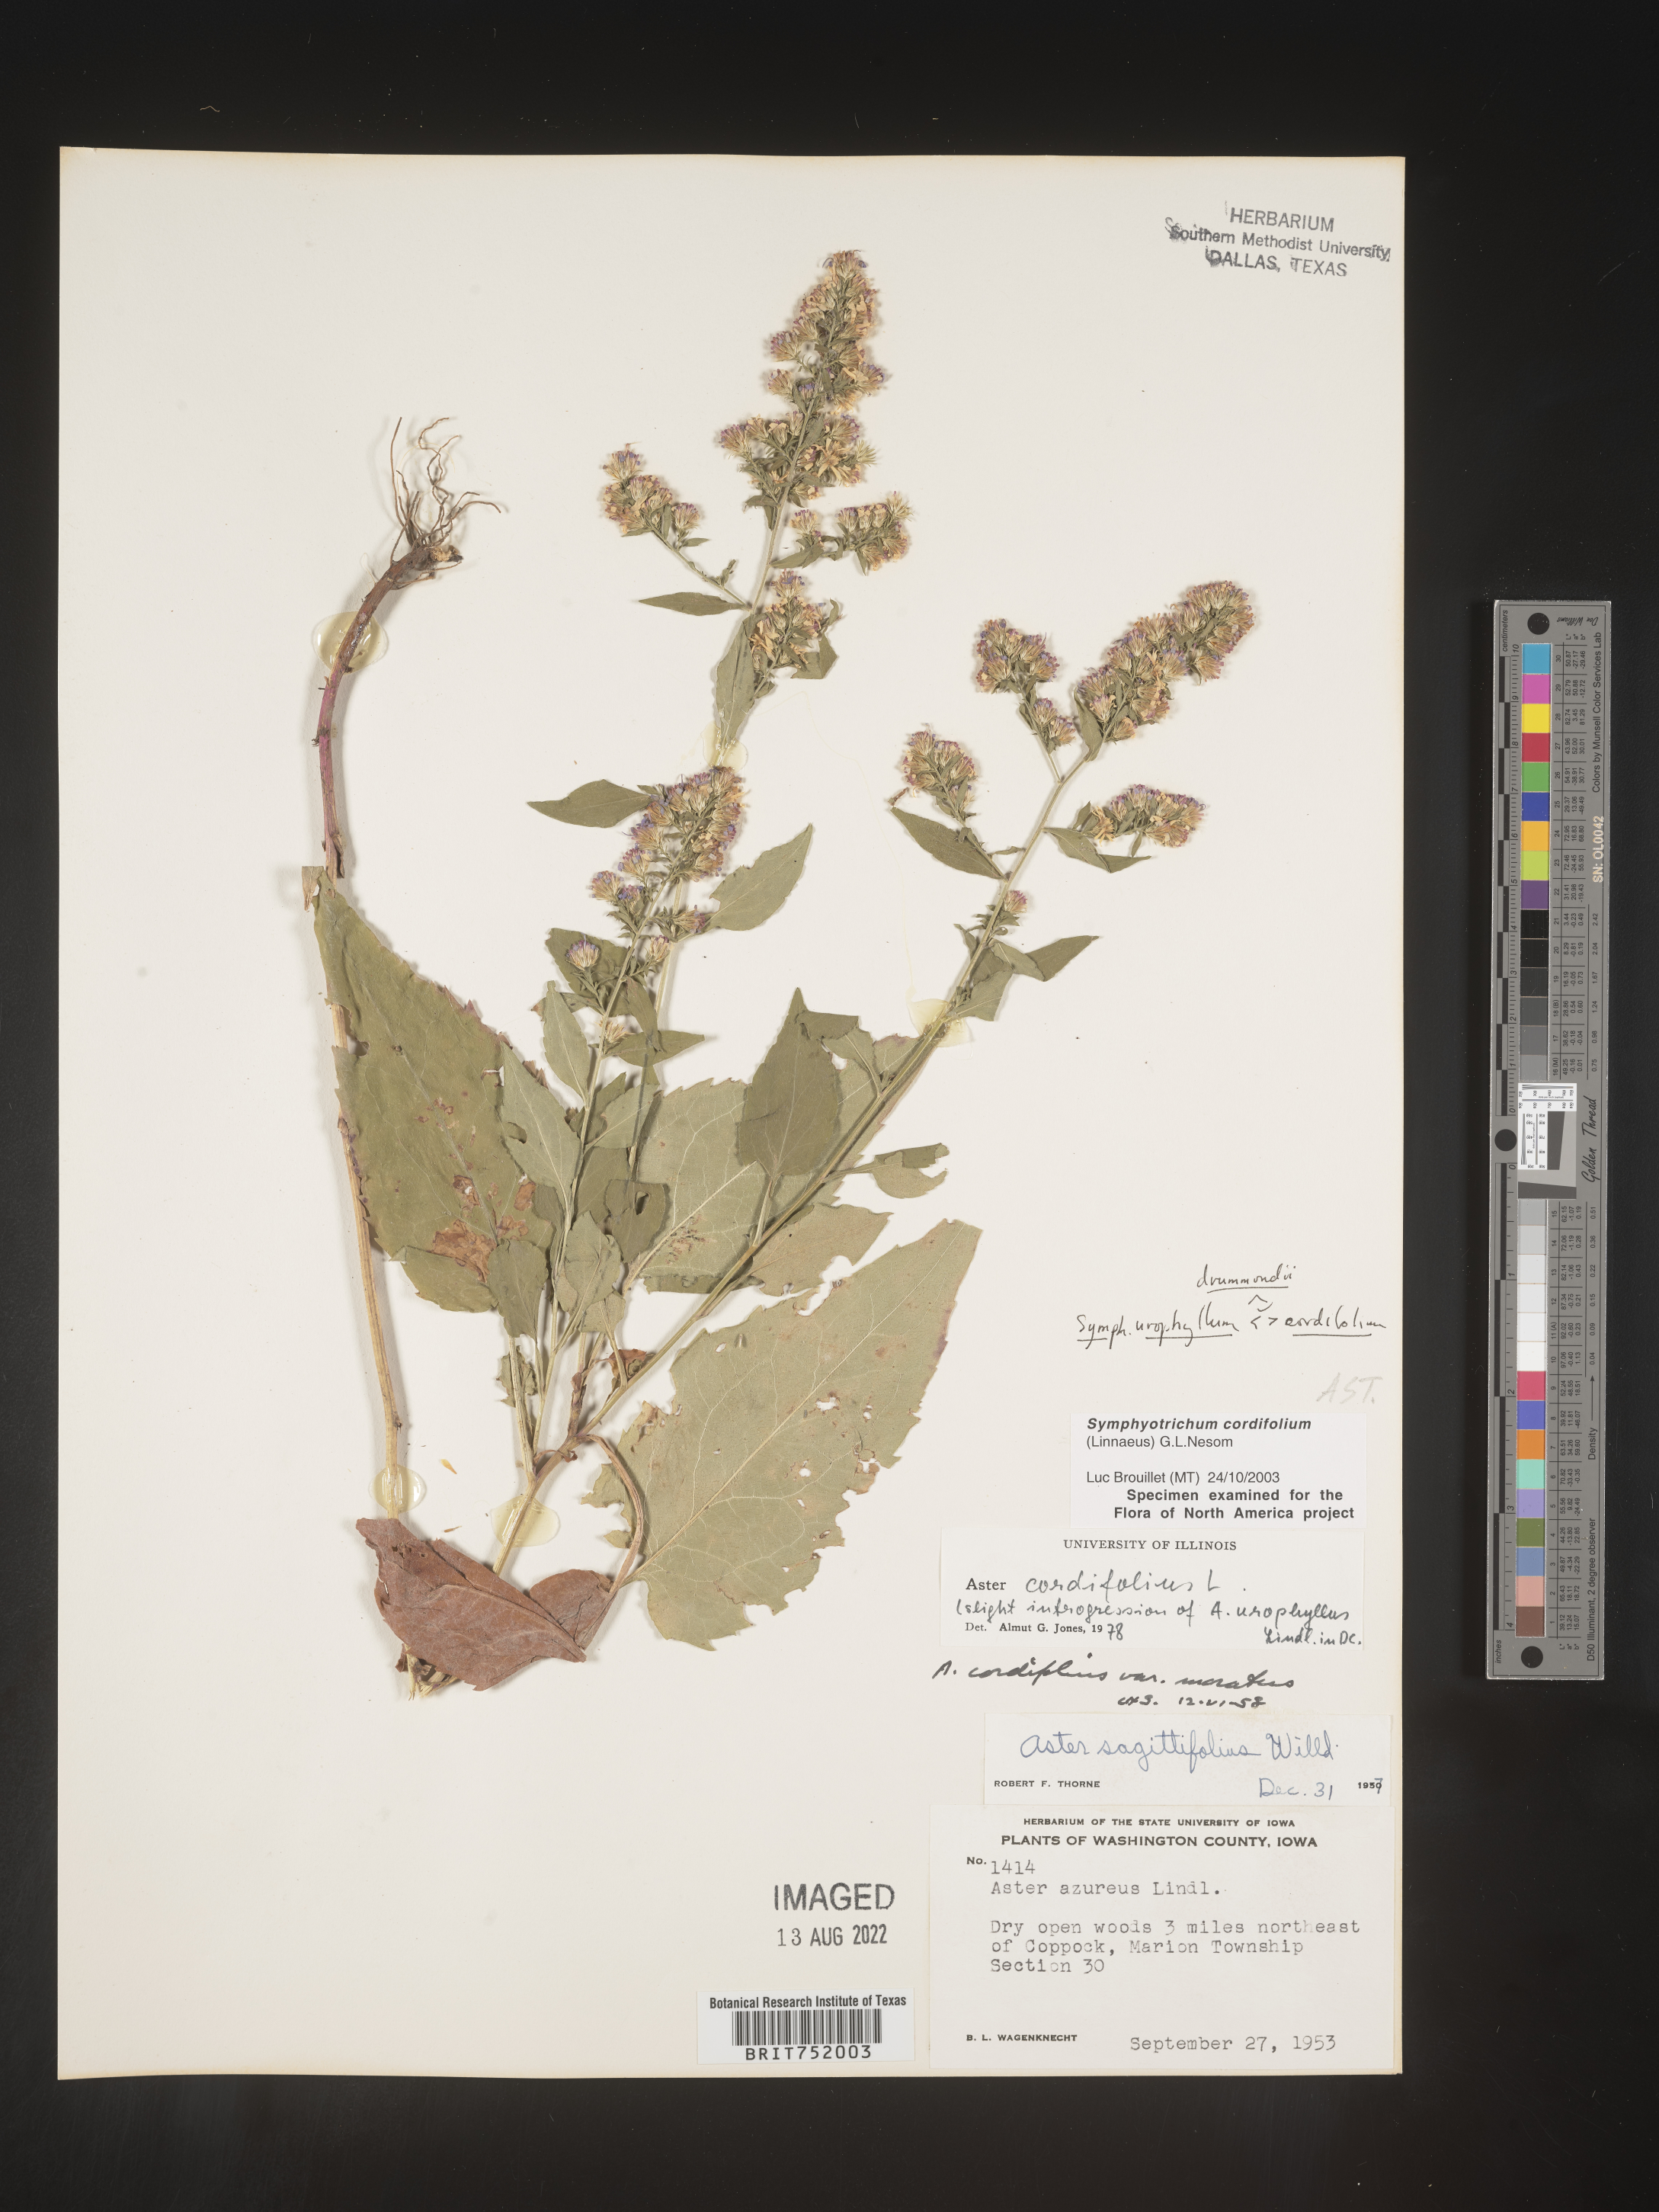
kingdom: Plantae
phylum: Tracheophyta
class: Magnoliopsida
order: Asterales
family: Asteraceae
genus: Symphyotrichum
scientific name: Symphyotrichum drummondii
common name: Drummond's aster
